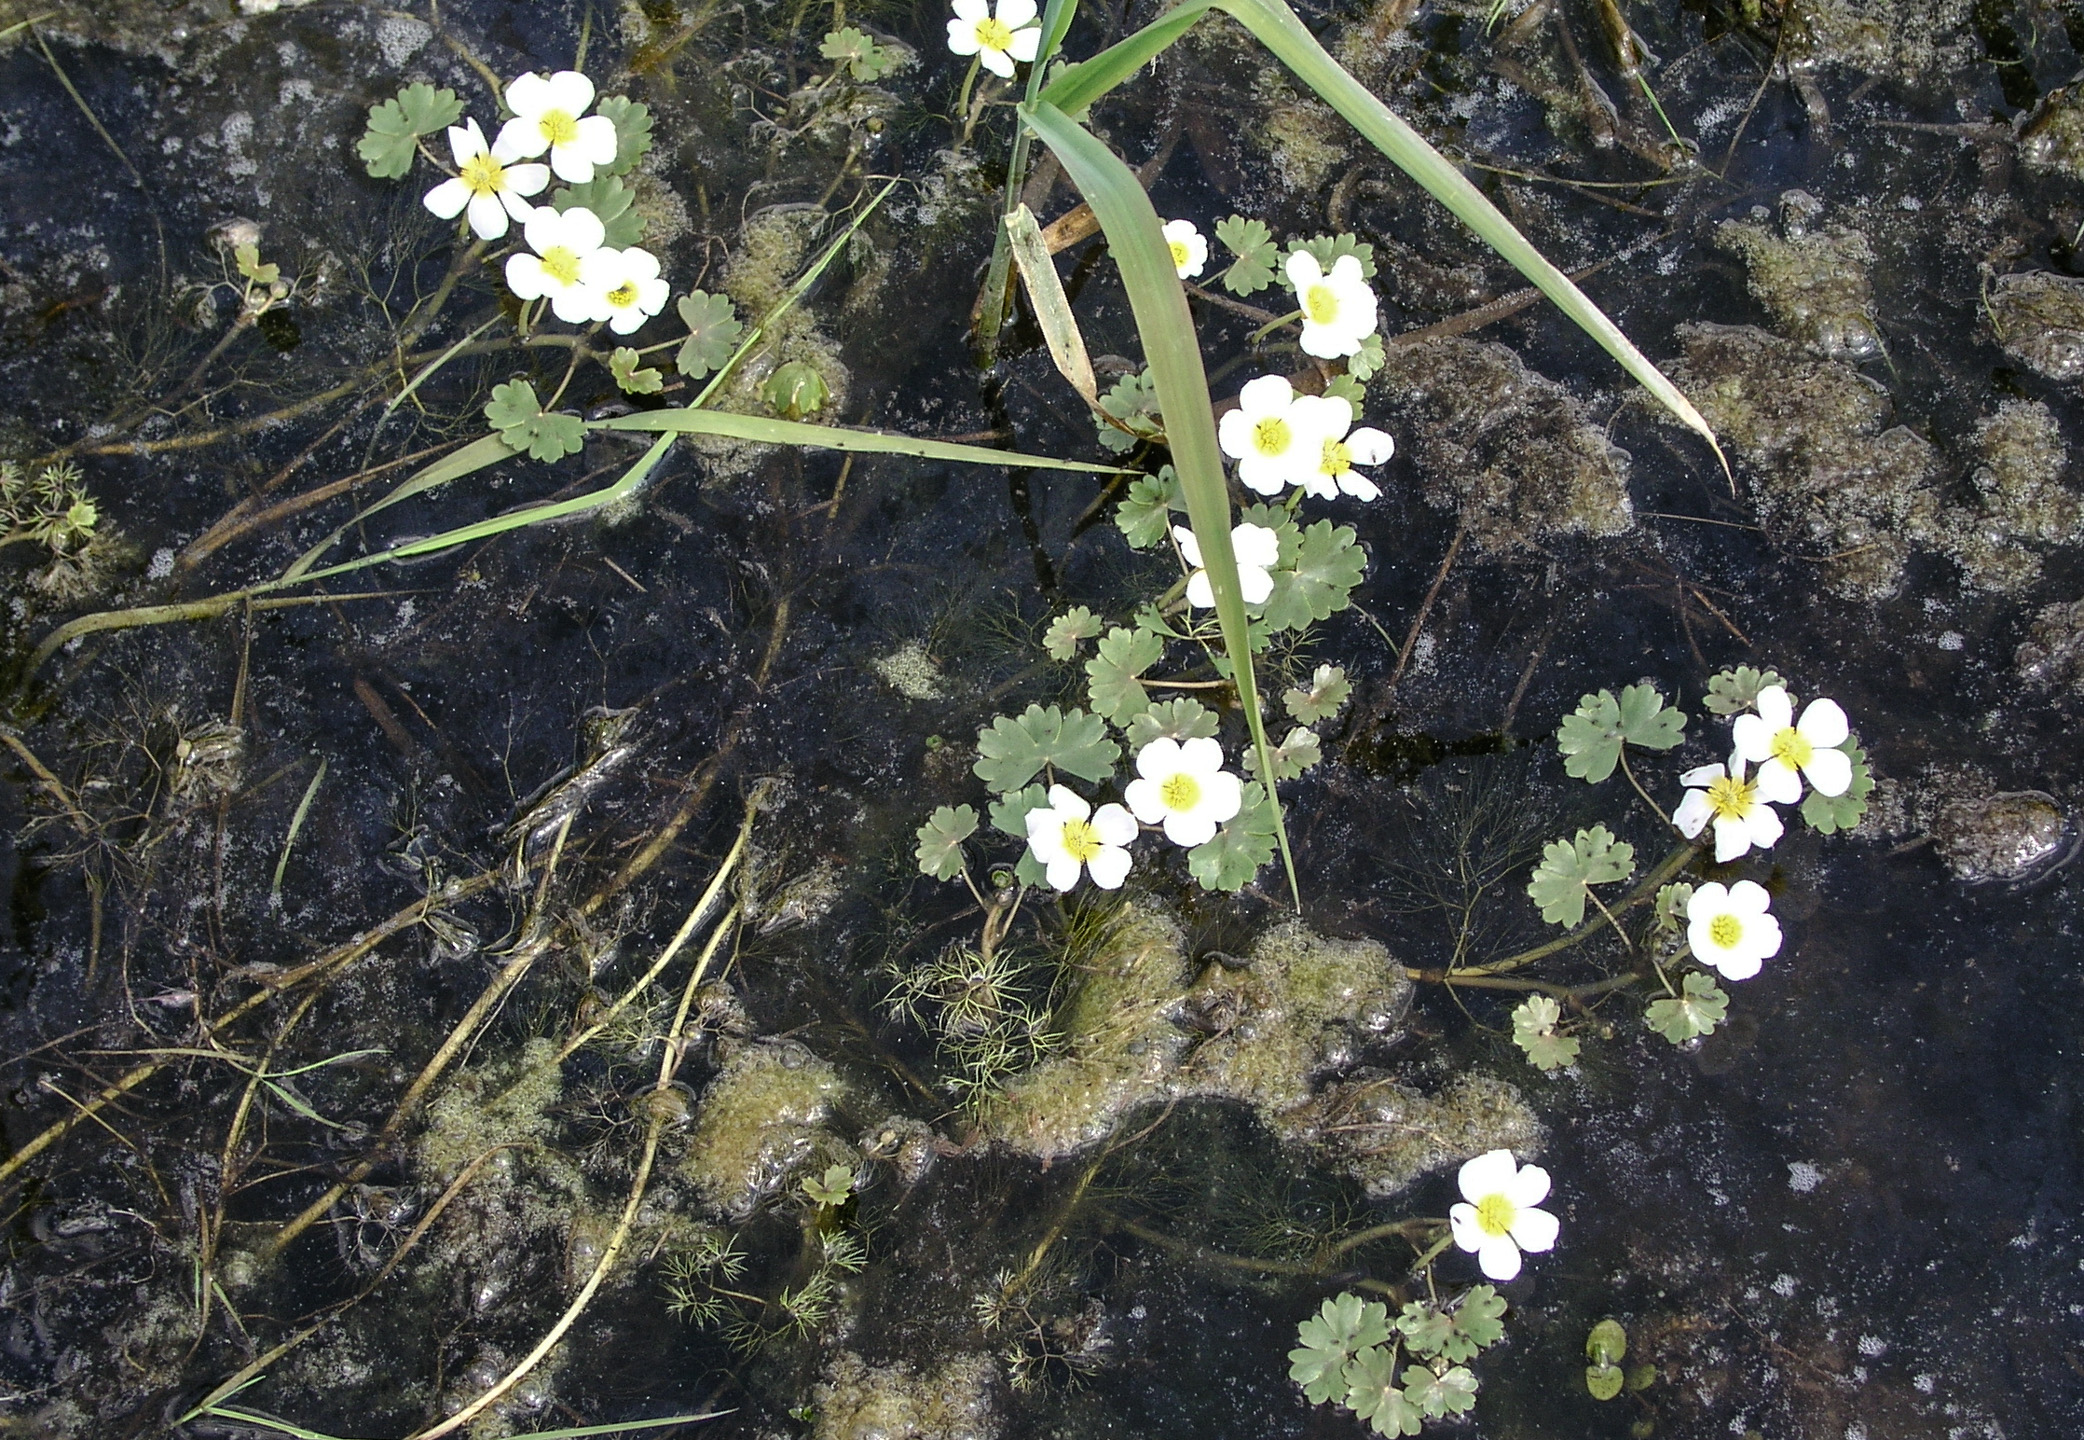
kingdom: Plantae
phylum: Tracheophyta
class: Magnoliopsida
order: Ranunculales
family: Ranunculaceae
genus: Ranunculus
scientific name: Ranunculus aquatilis
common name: Common water-crowfoot
